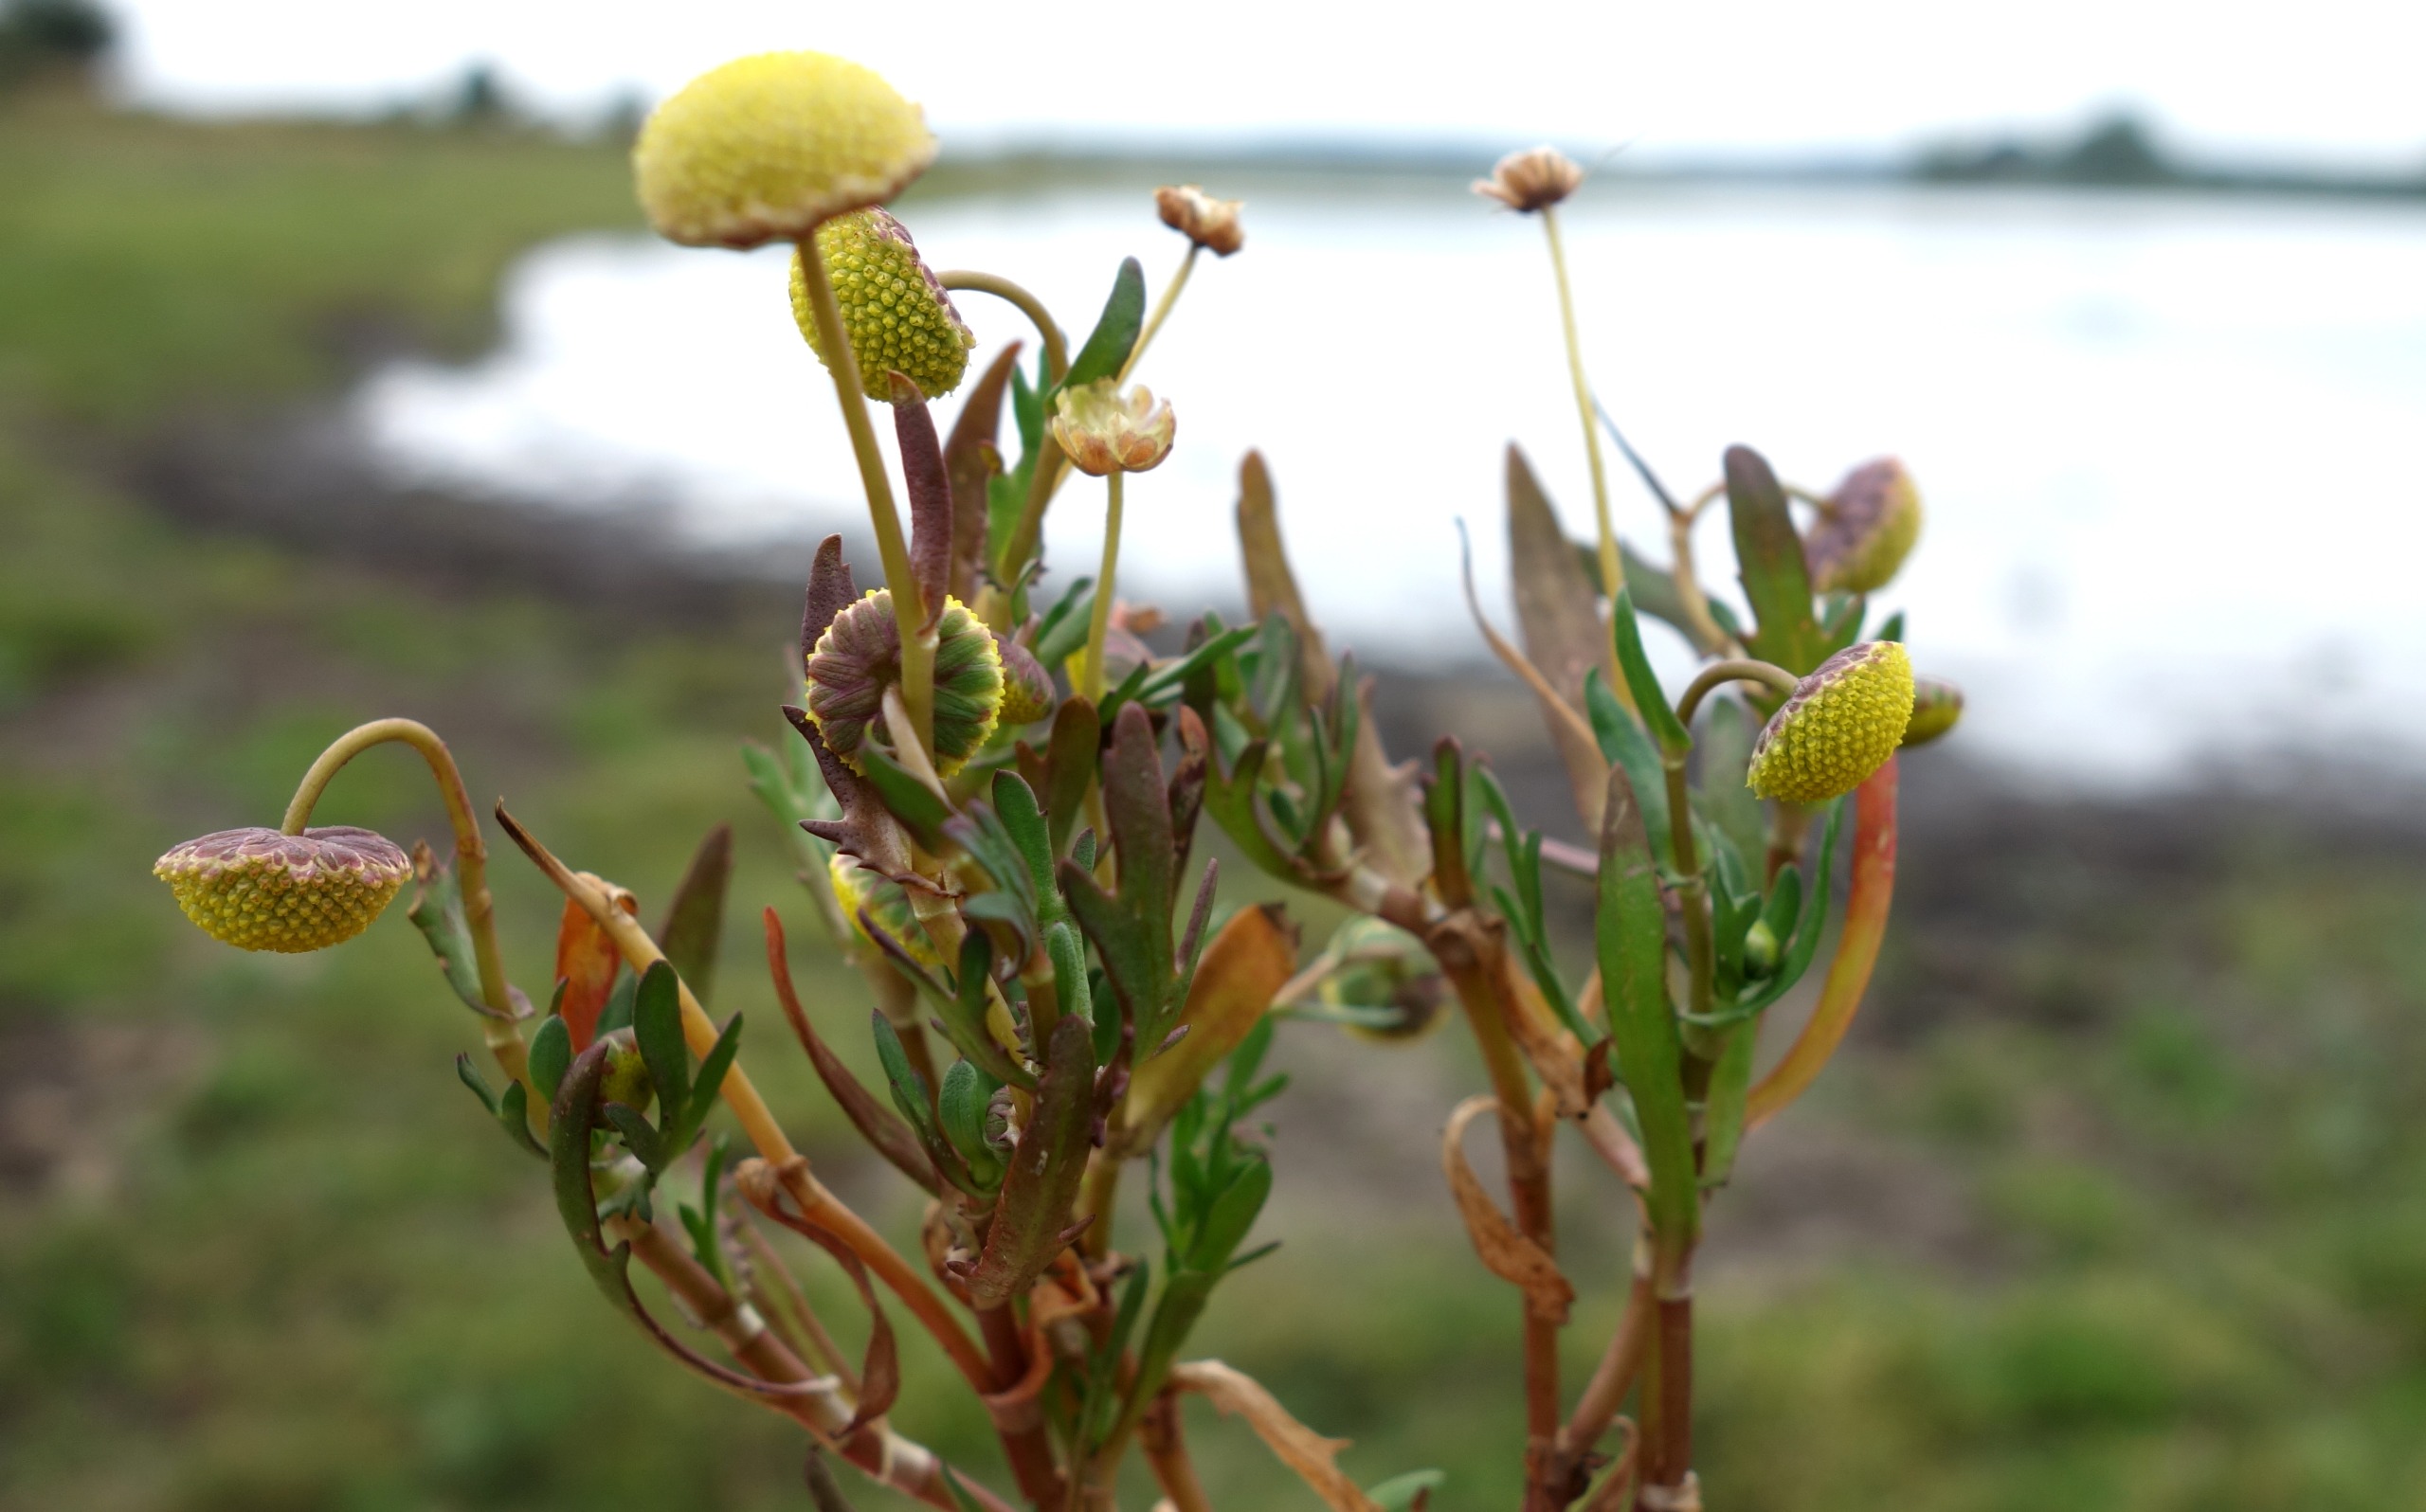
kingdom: Plantae
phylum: Tracheophyta
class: Magnoliopsida
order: Asterales
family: Asteraceae
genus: Cotula
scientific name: Cotula coronopifolia
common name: Firkløft
